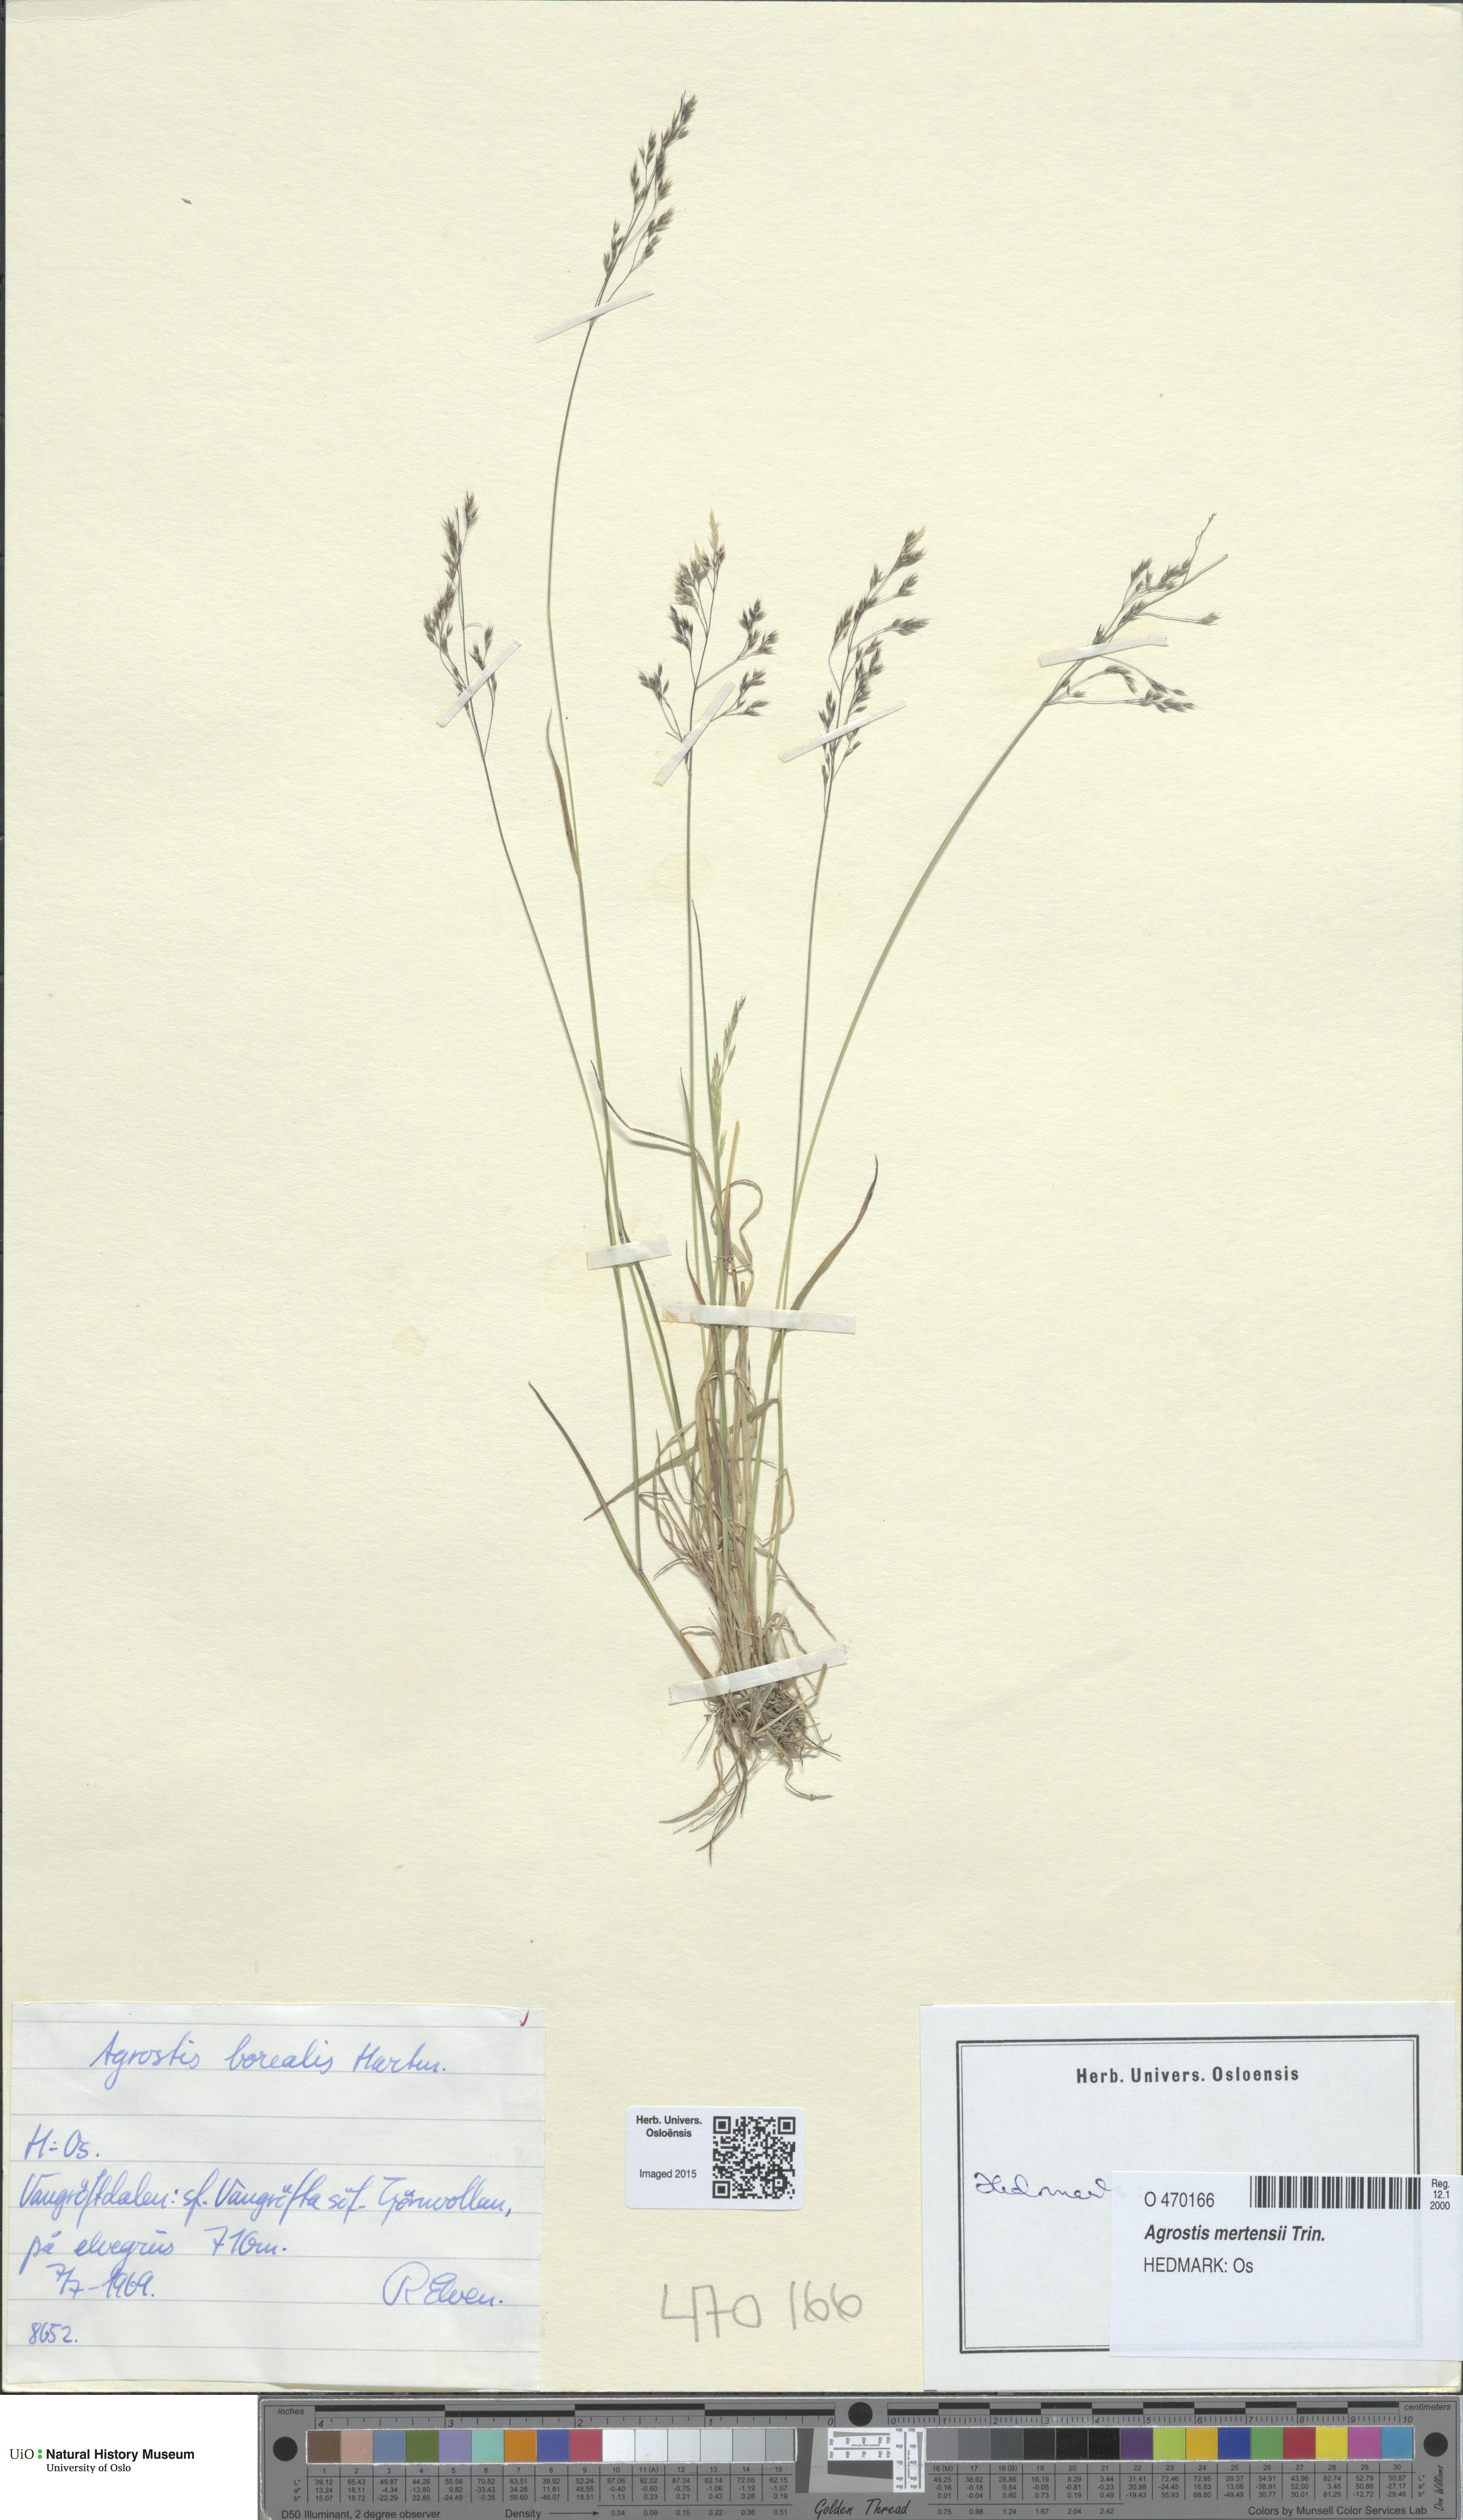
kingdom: Plantae
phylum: Tracheophyta
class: Liliopsida
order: Poales
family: Poaceae
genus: Agrostis
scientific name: Agrostis mertensii
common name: Northern bent
